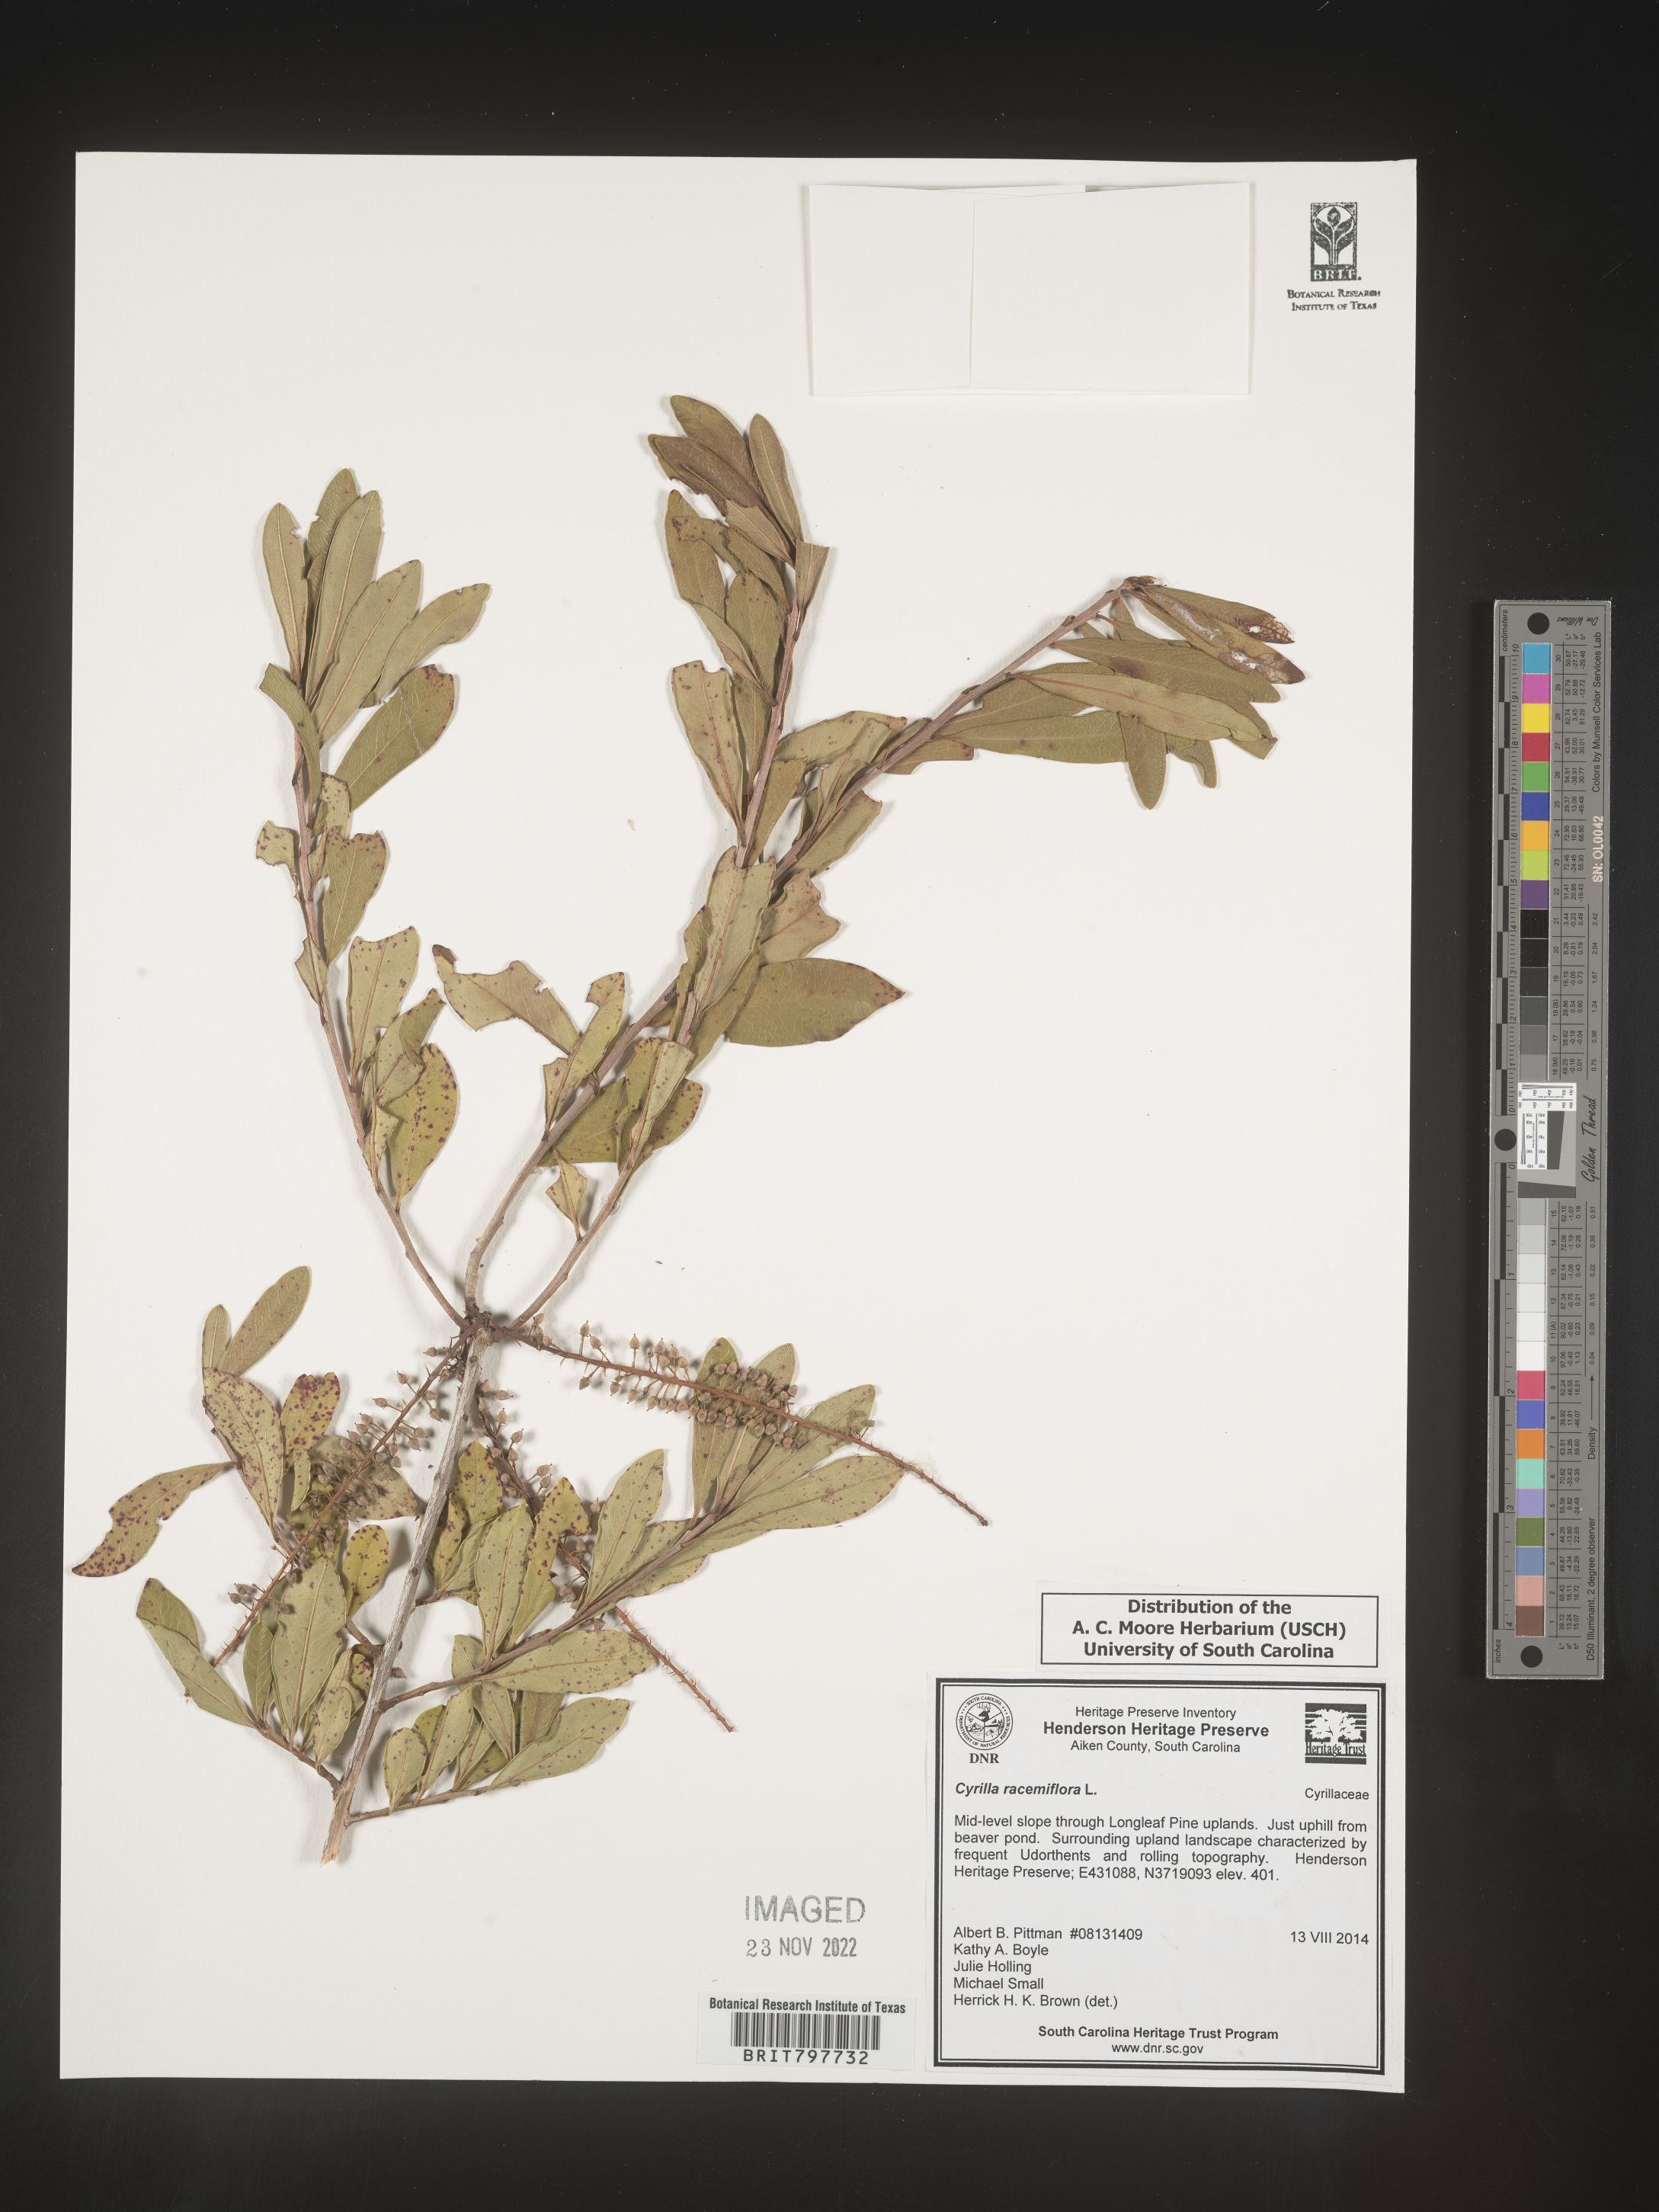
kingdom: Plantae
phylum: Tracheophyta
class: Magnoliopsida
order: Ericales
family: Cyrillaceae
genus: Cyrilla
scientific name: Cyrilla racemiflora
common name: Black titi
